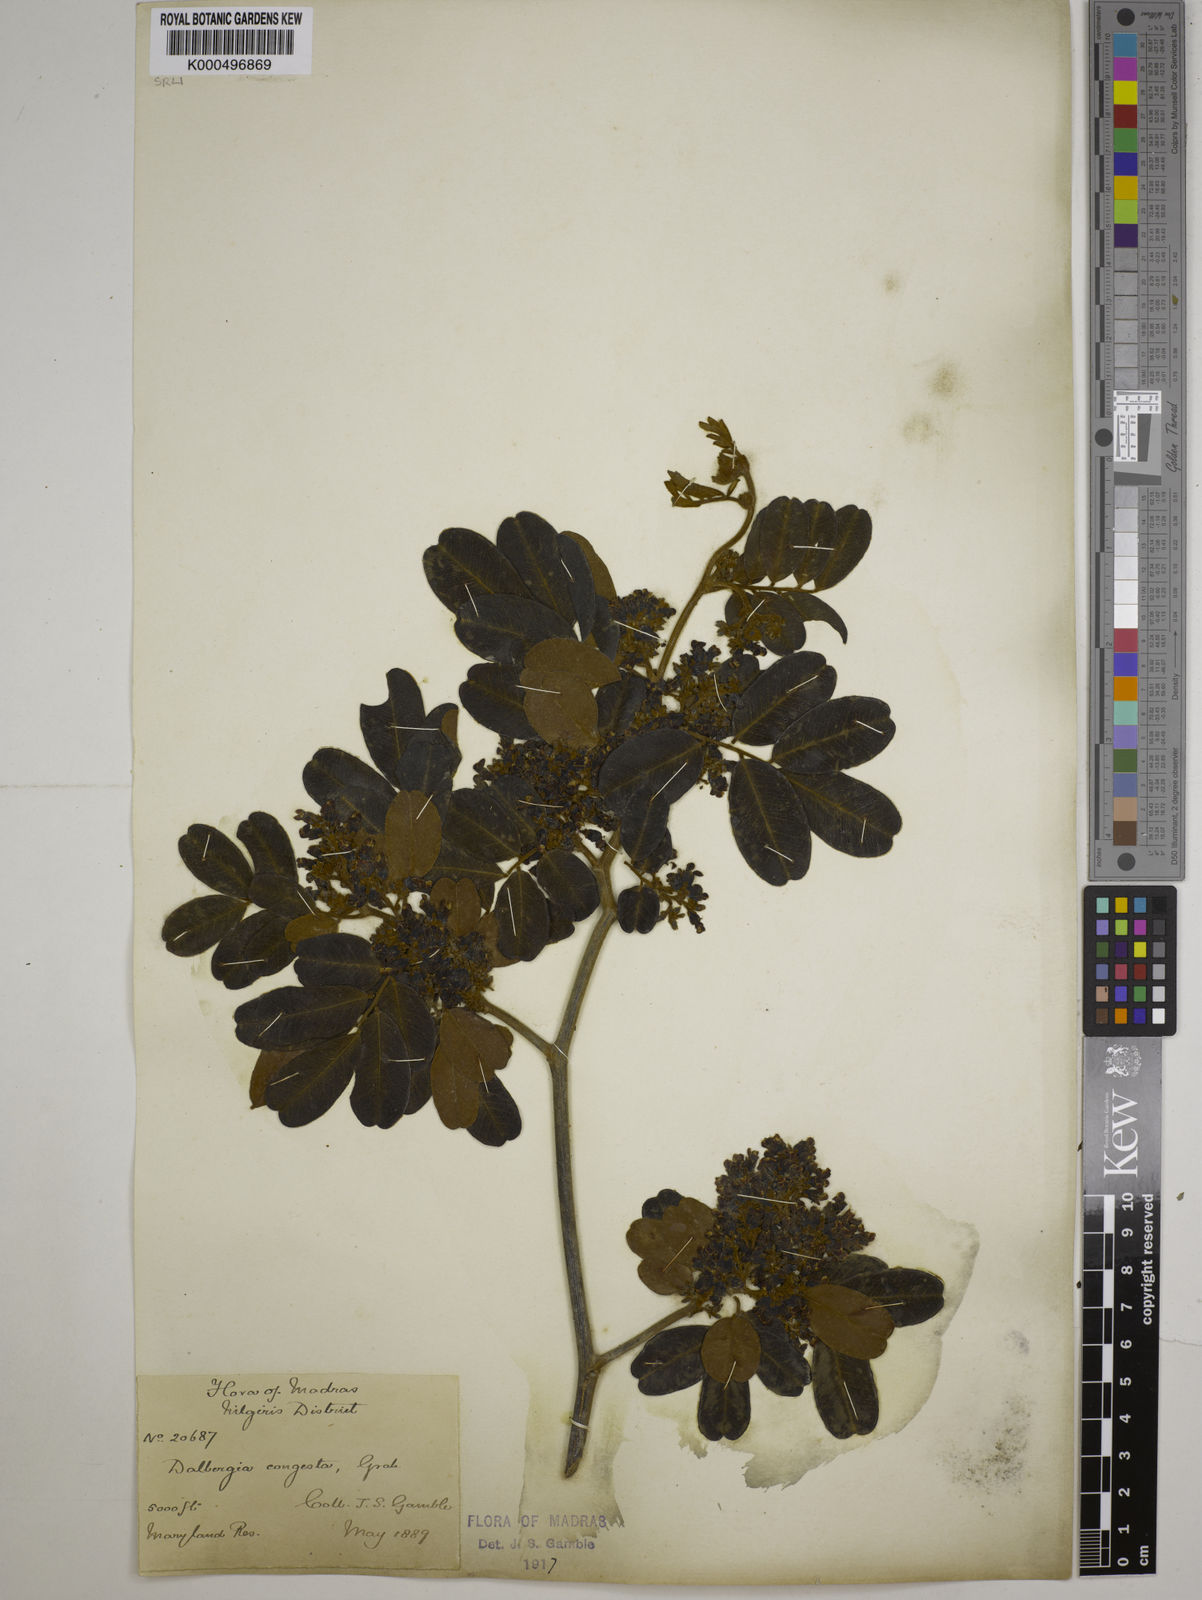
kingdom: Plantae
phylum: Tracheophyta
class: Magnoliopsida
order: Fabales
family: Fabaceae
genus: Dalbergia
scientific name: Dalbergia congesta
